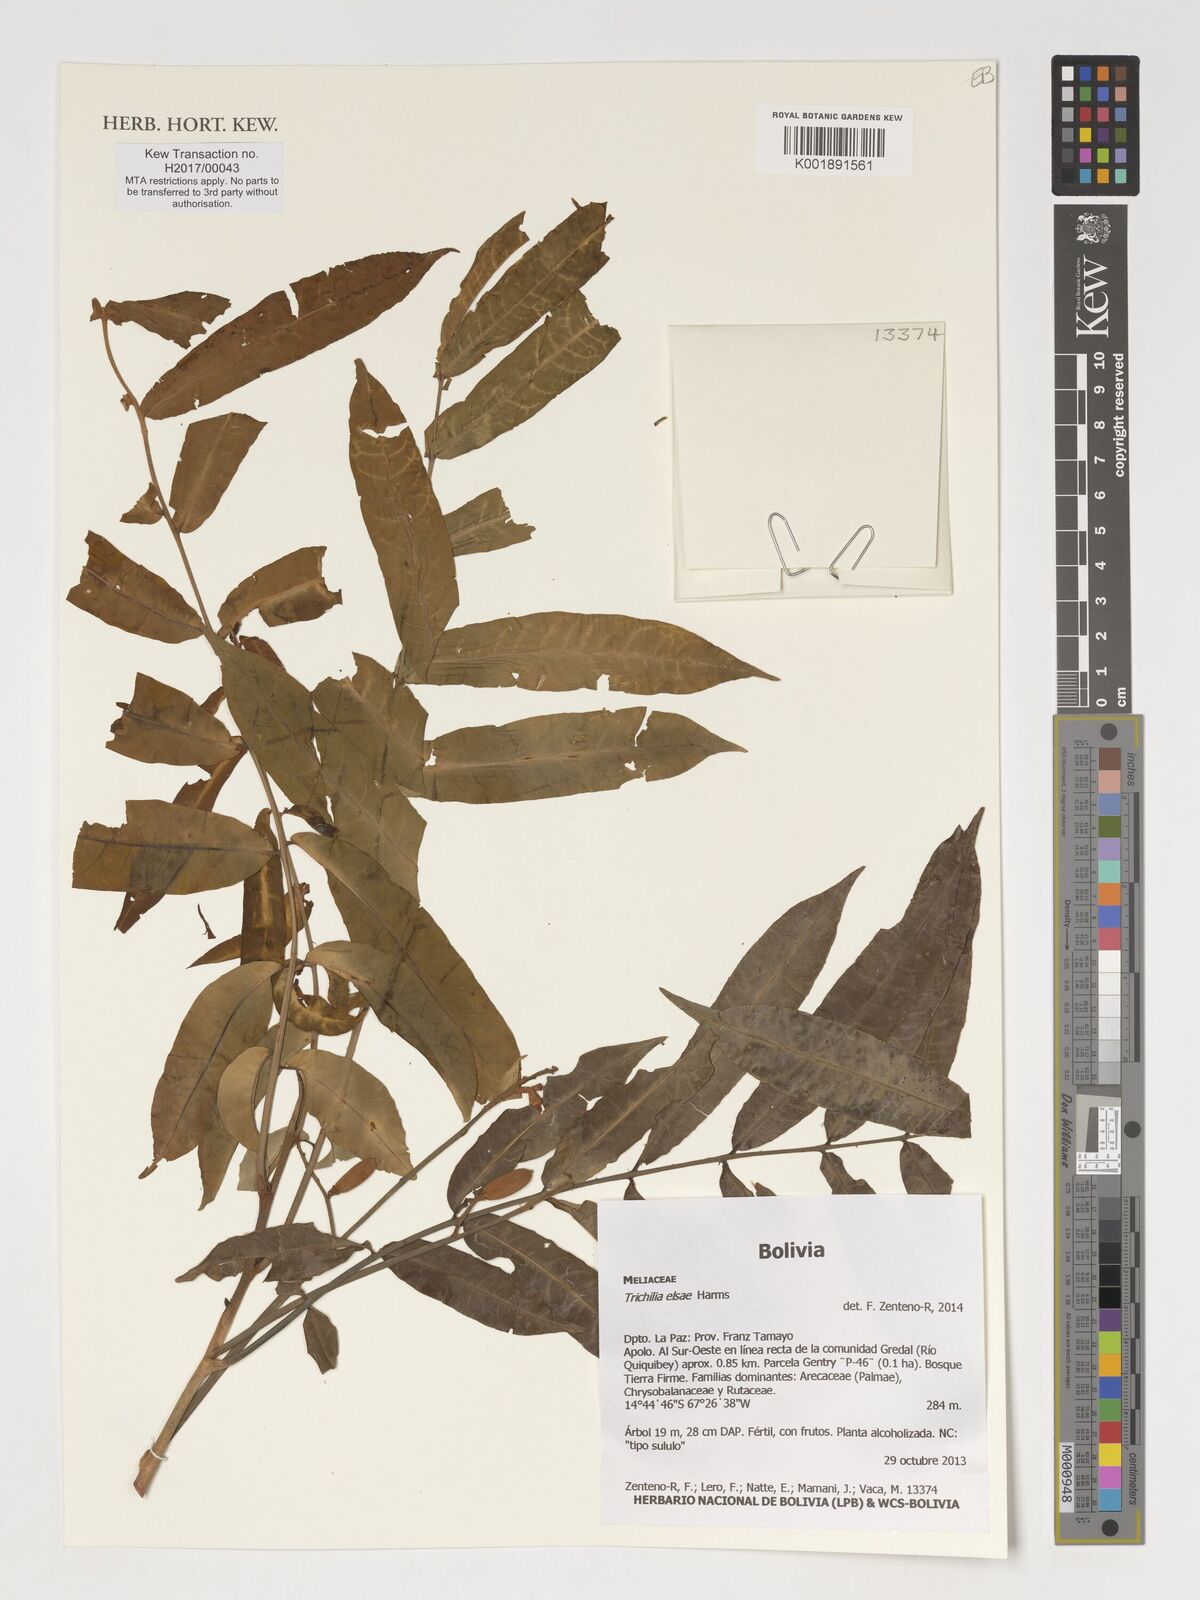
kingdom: Plantae
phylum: Tracheophyta
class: Magnoliopsida
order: Sapindales
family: Meliaceae
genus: Trichilia
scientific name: Trichilia elsae
